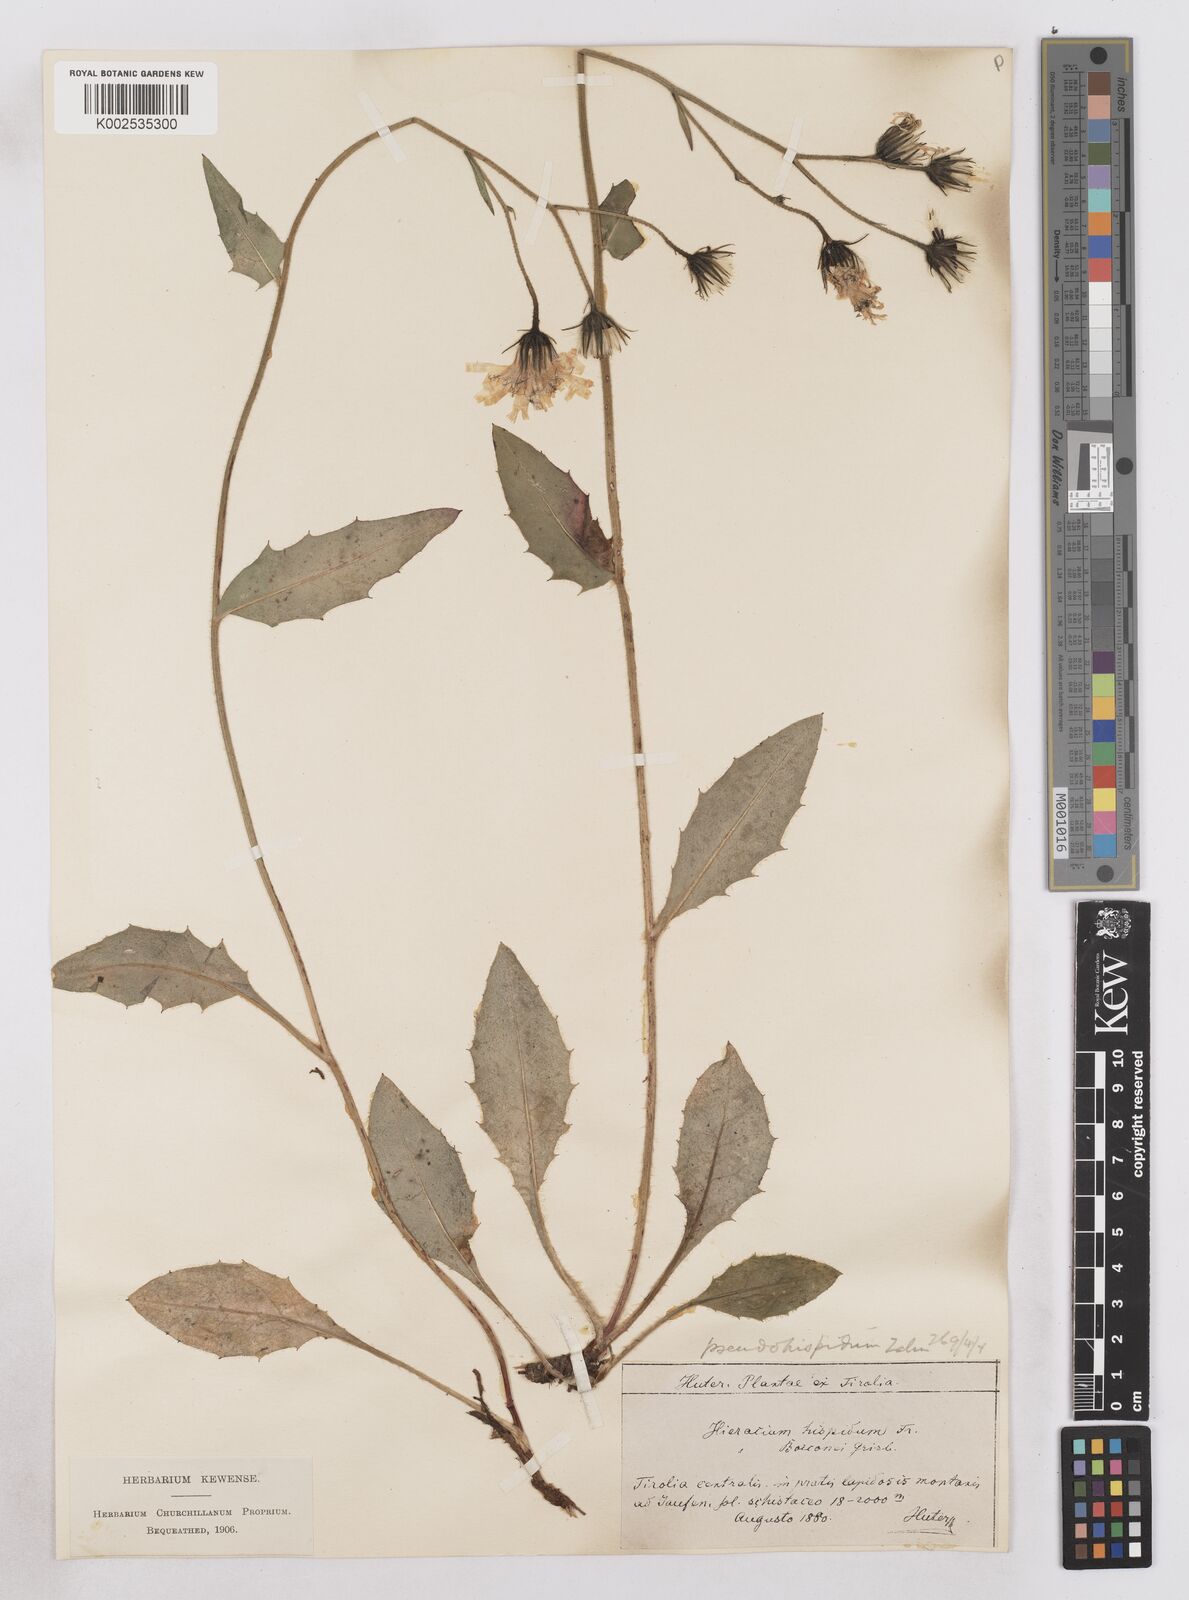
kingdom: Plantae
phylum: Tracheophyta
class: Magnoliopsida
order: Asterales
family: Asteraceae
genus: Hieracium
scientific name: Hieracium kuekenthalianum
